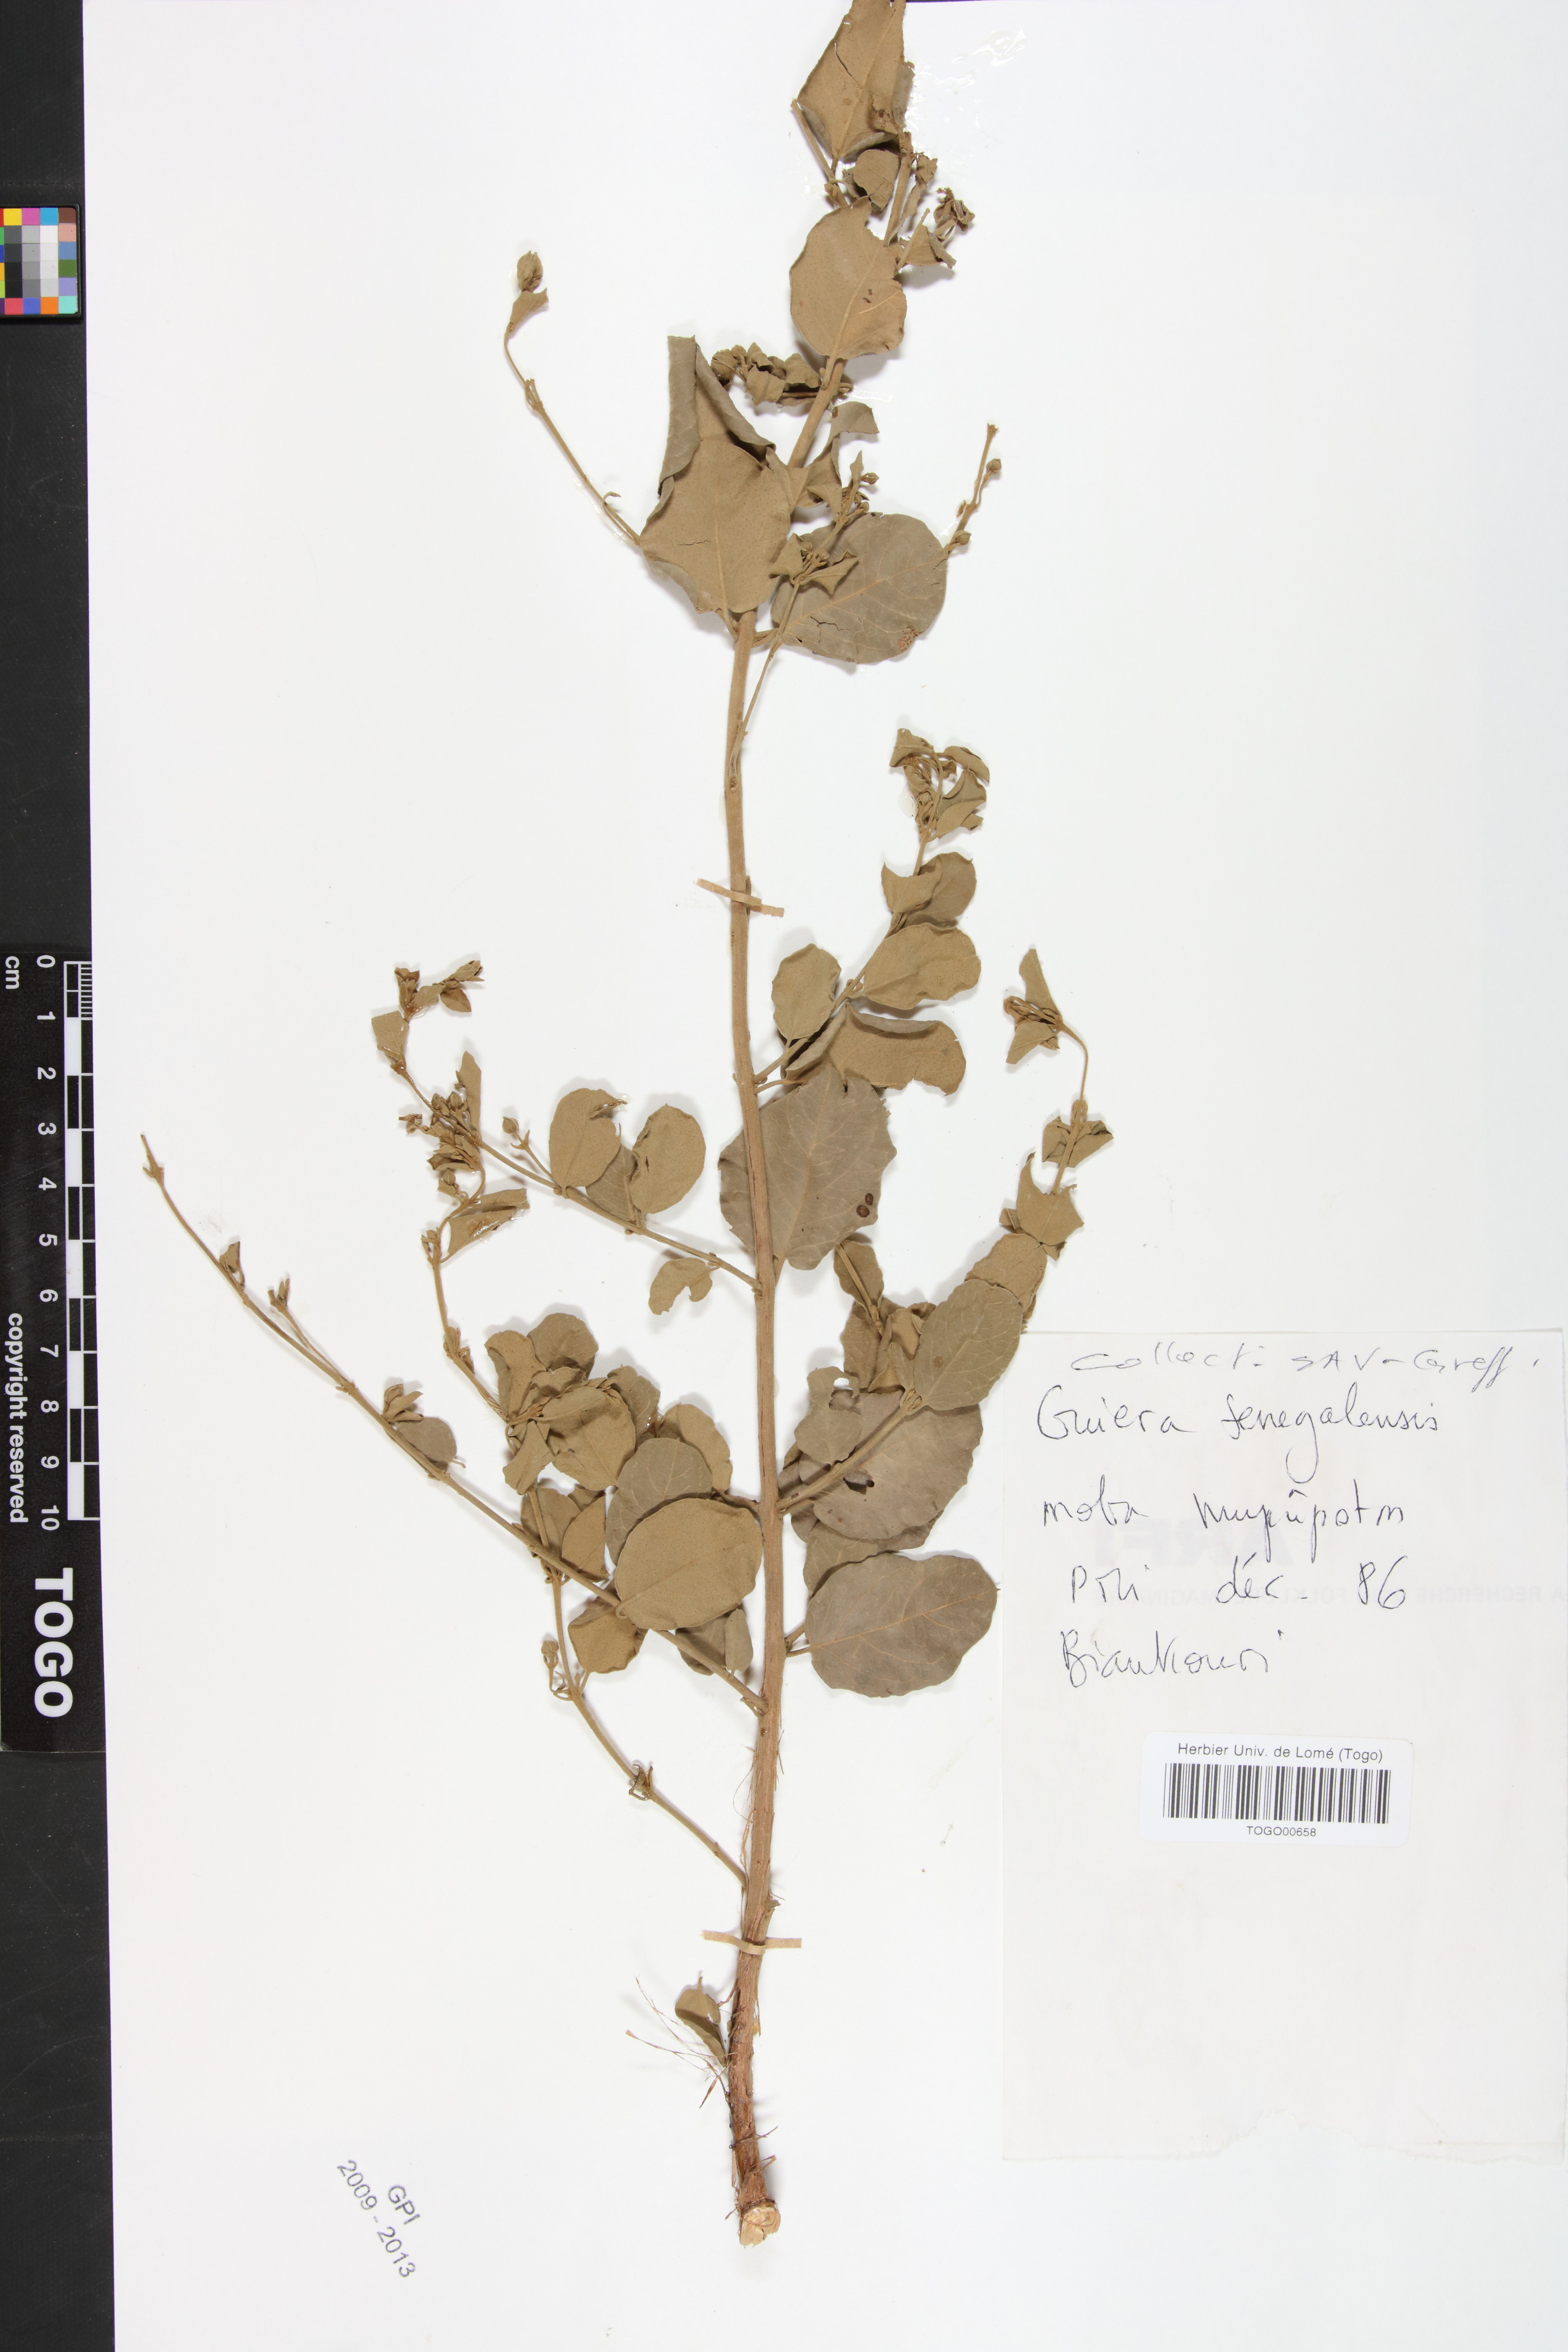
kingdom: Plantae
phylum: Tracheophyta
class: Magnoliopsida
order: Myrtales
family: Combretaceae
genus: Guiera
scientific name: Guiera senegalensis
